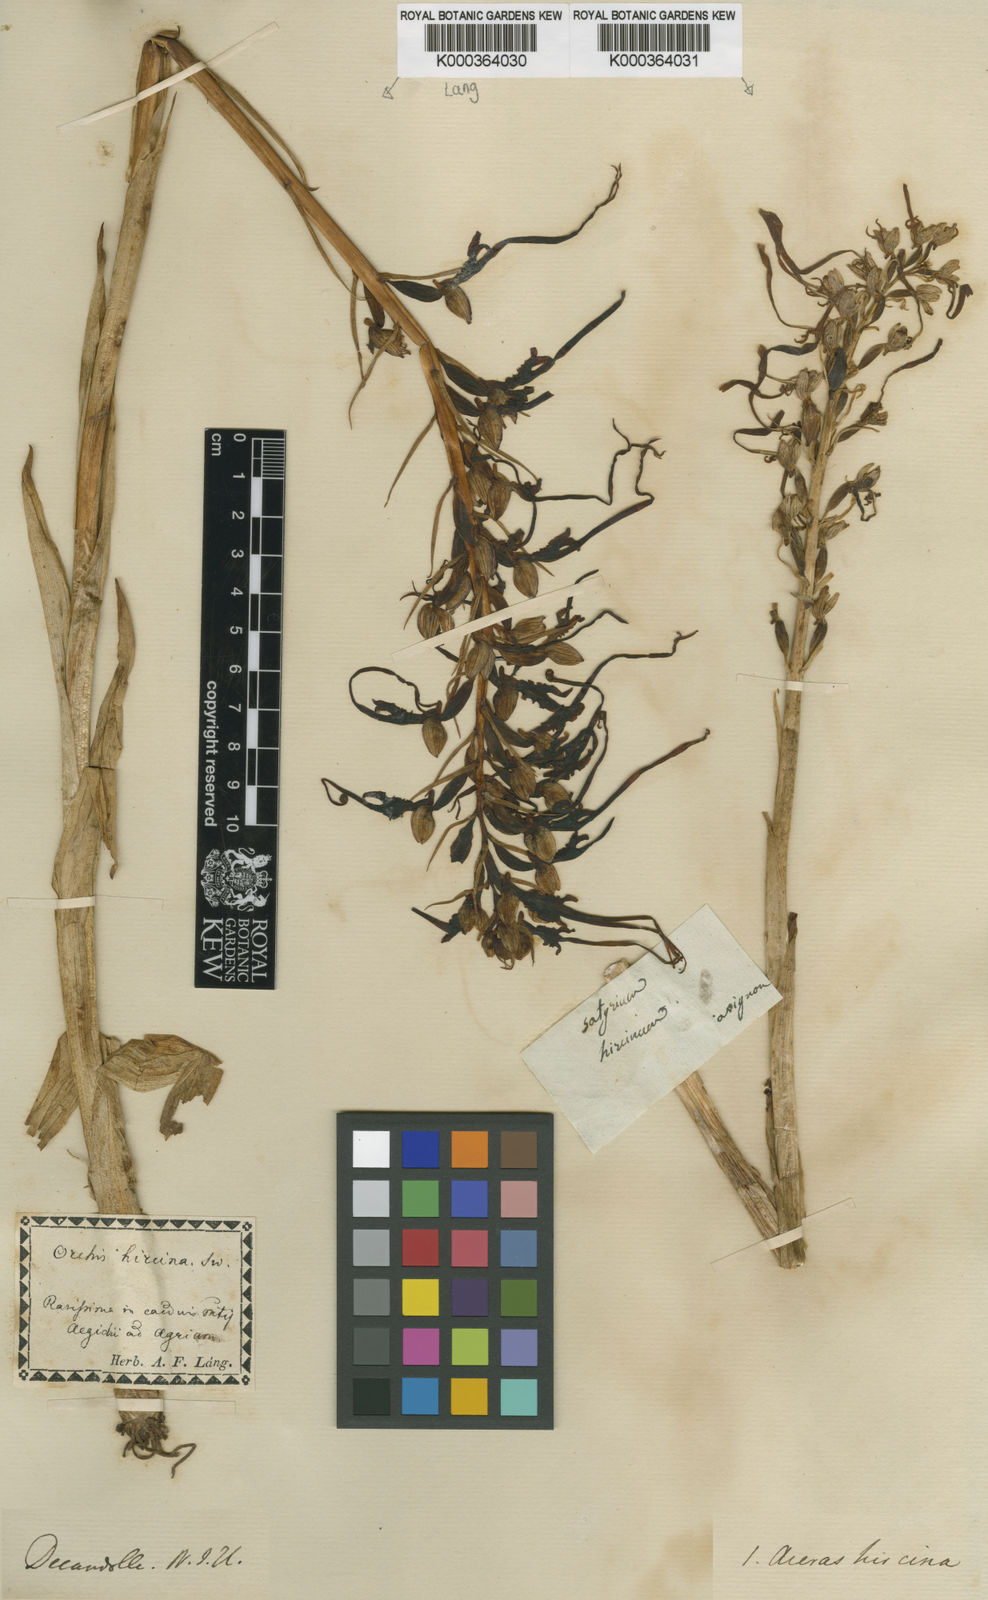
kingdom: Plantae
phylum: Tracheophyta
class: Liliopsida
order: Asparagales
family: Orchidaceae
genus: Himantoglossum
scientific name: Himantoglossum hircinum
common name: Lizard orchid
